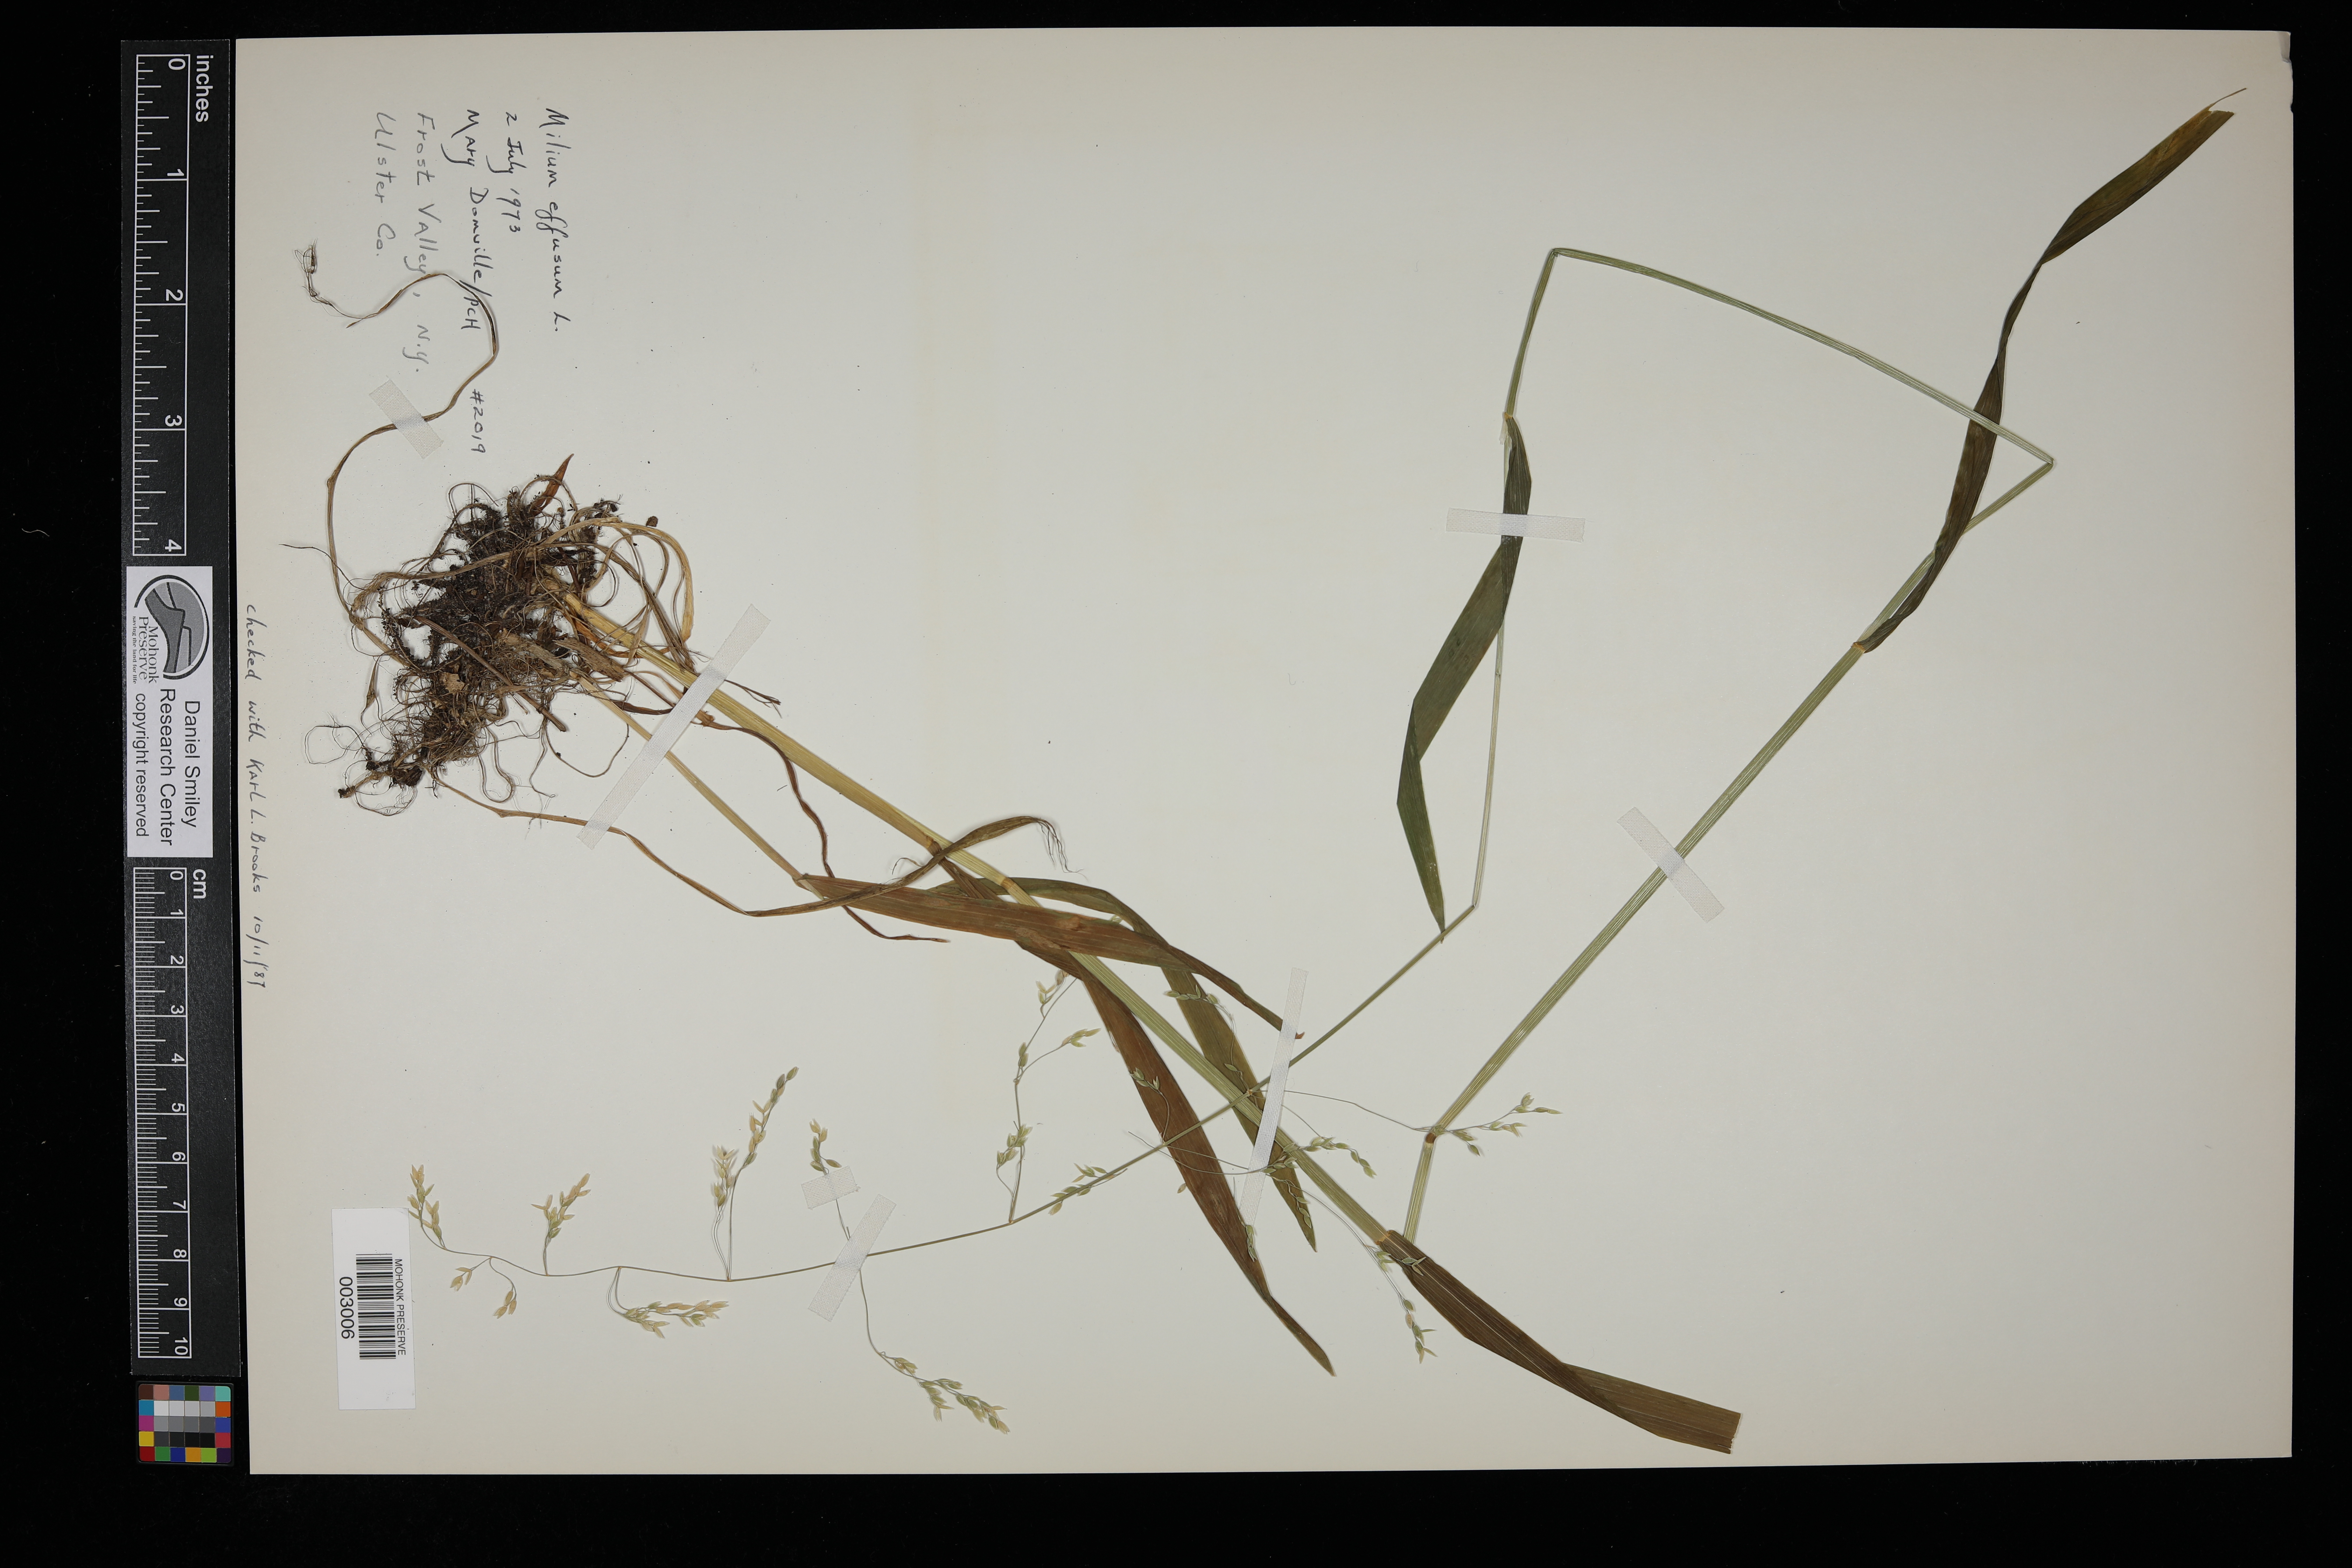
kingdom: Plantae
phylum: Tracheophyta
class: Liliopsida
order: Poales
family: Poaceae
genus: Milium
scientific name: Milium effusum
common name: Wood millet
